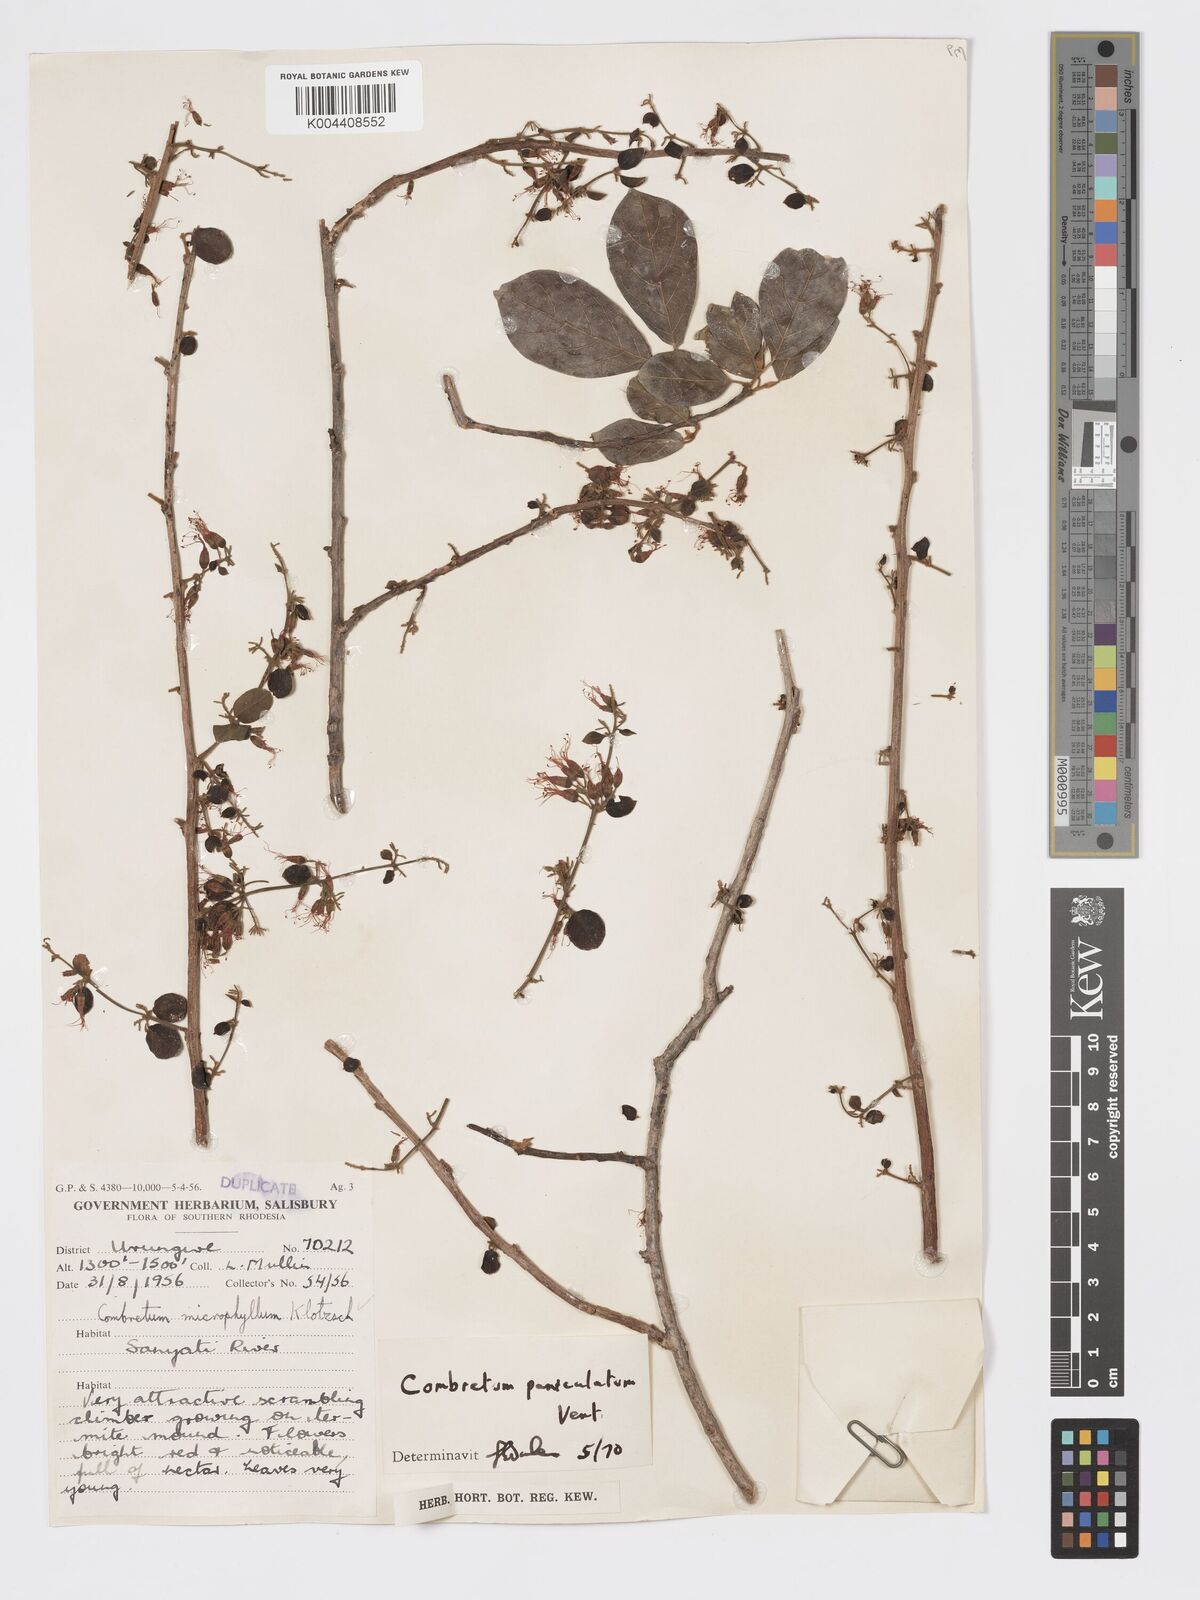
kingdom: Plantae
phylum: Tracheophyta
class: Magnoliopsida
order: Myrtales
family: Combretaceae
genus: Combretum
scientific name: Combretum paniculatum
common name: Fire vine
